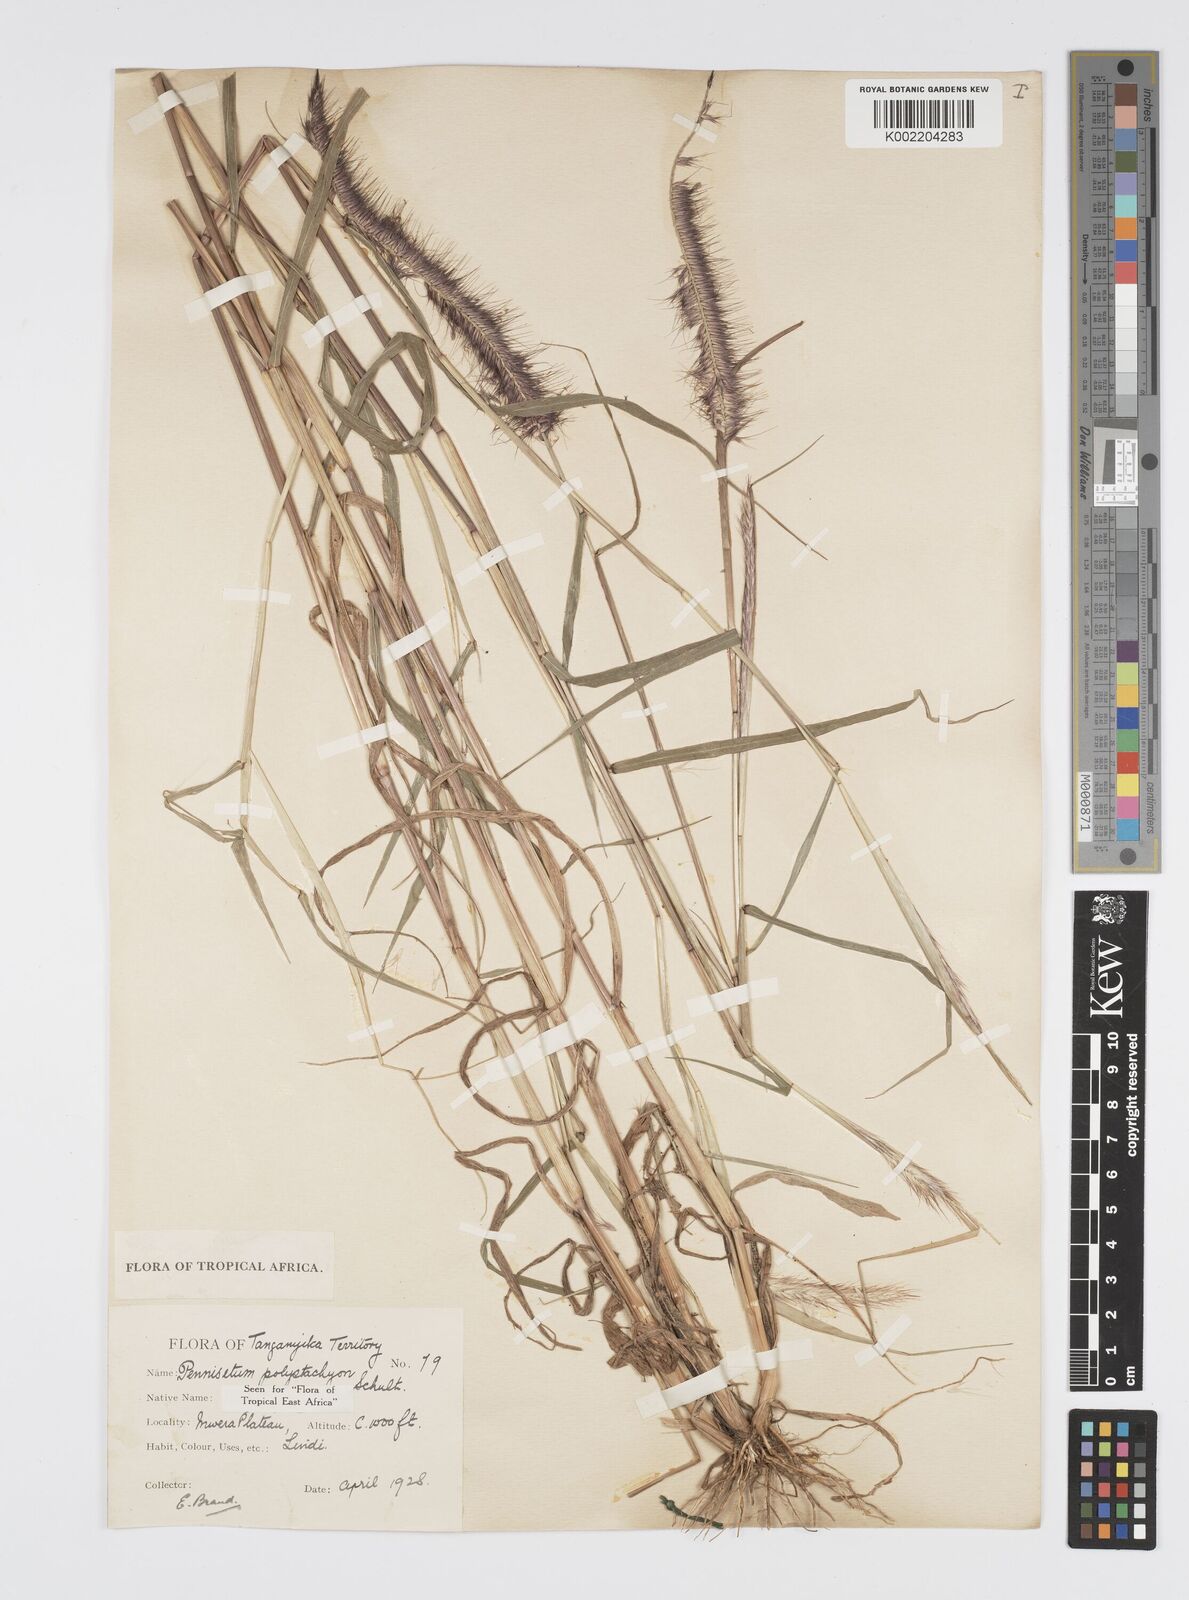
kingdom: Plantae
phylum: Tracheophyta
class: Liliopsida
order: Poales
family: Poaceae
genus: Setaria
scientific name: Setaria parviflora
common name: Knotroot bristle-grass
